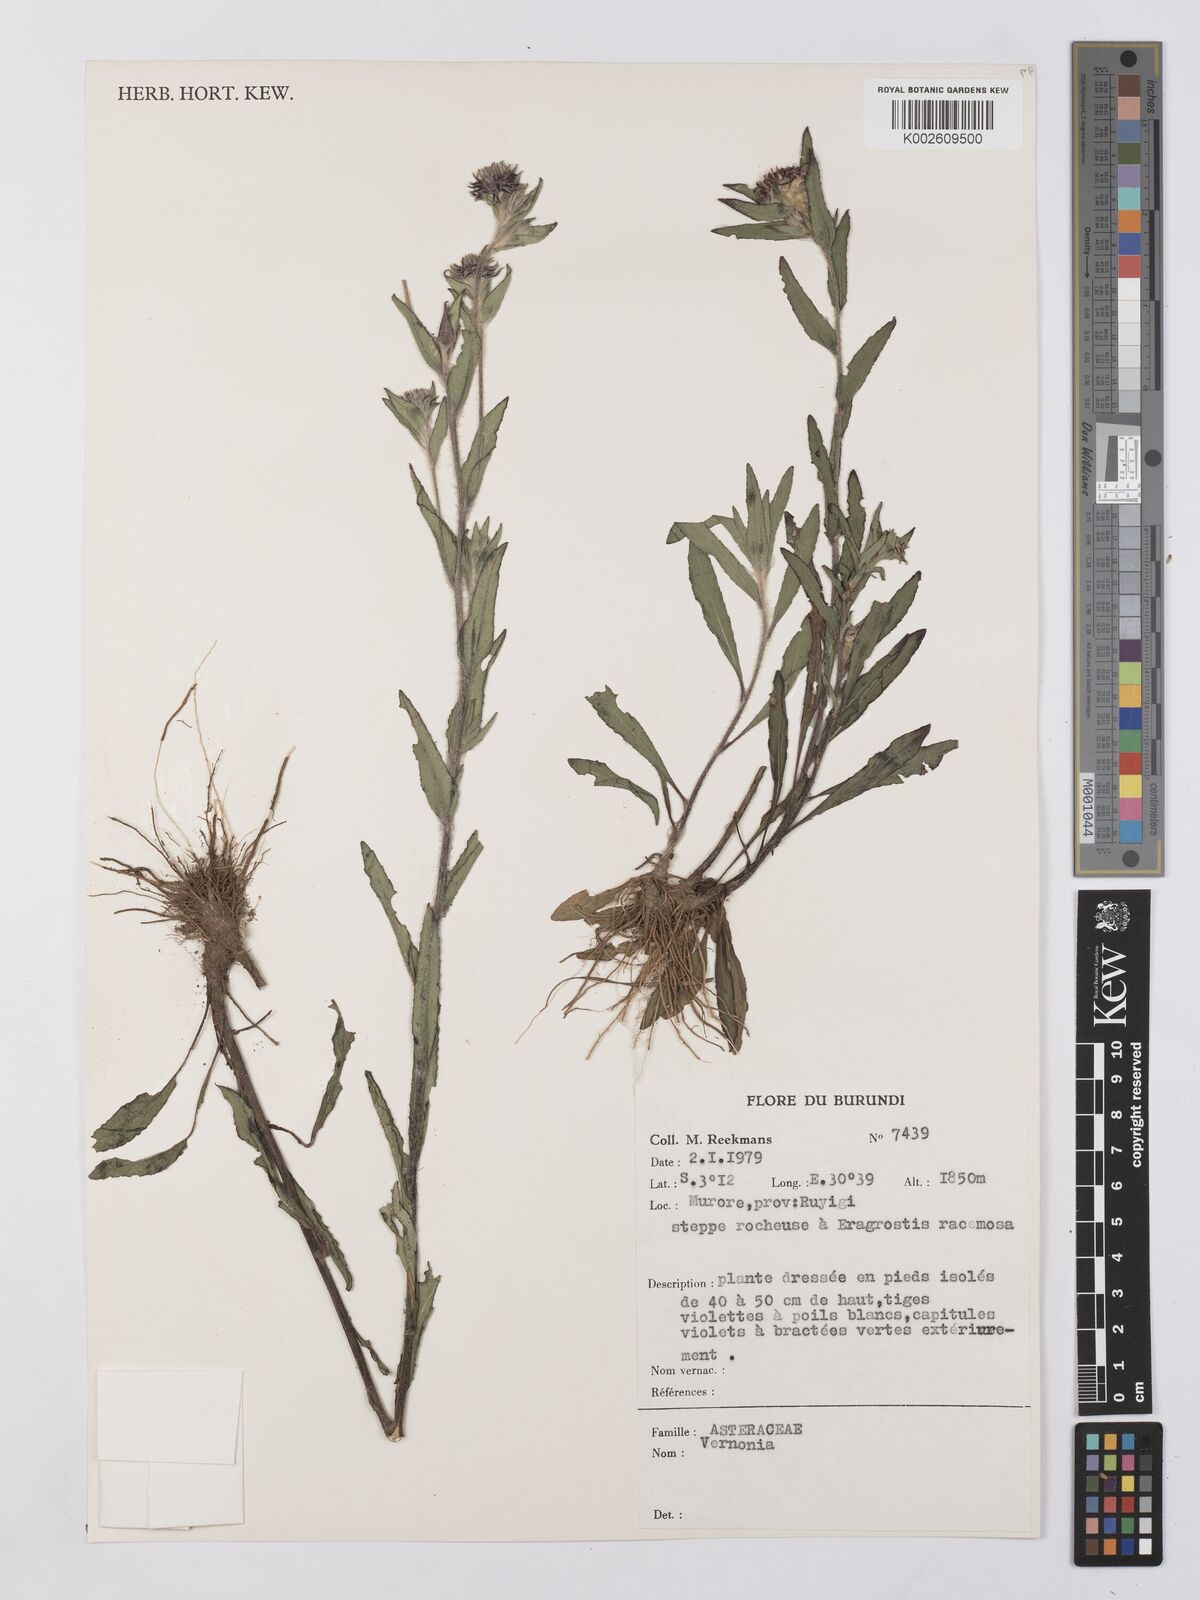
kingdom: Plantae
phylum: Tracheophyta
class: Magnoliopsida
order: Asterales
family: Asteraceae
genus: Vernonia
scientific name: Vernonia
